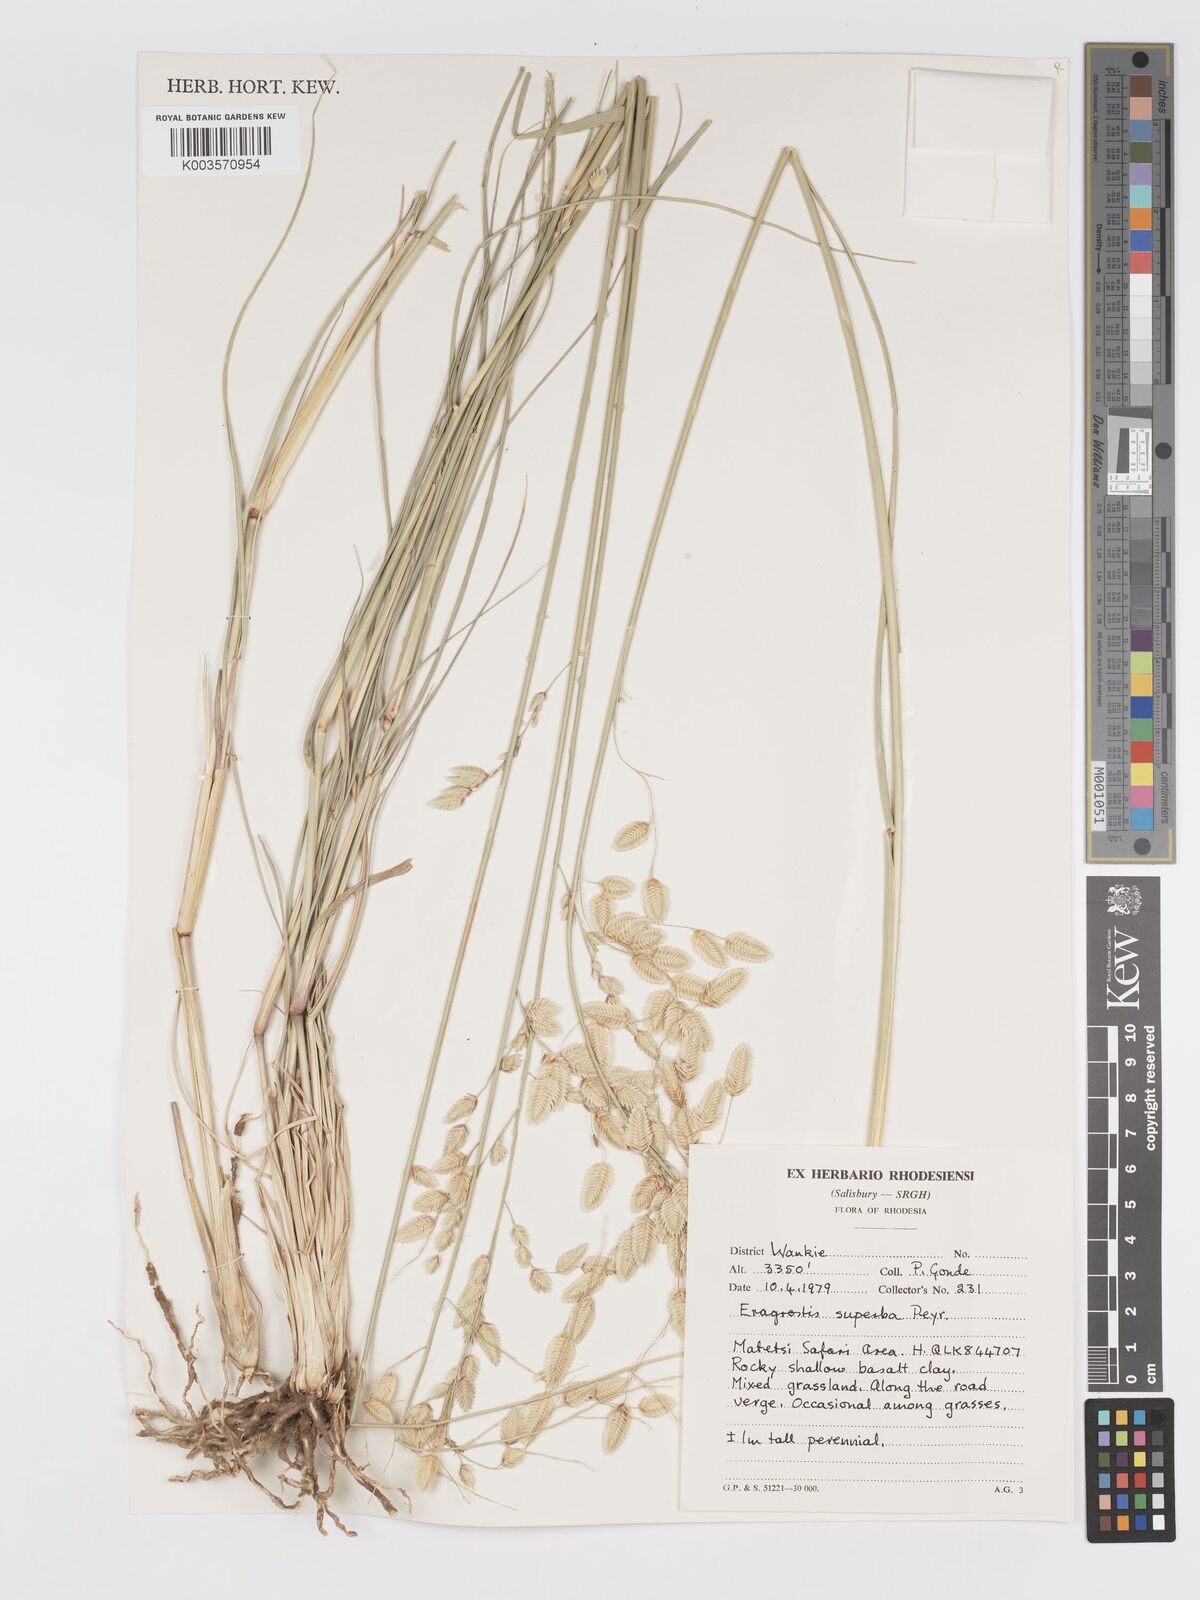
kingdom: Plantae
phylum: Tracheophyta
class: Liliopsida
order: Poales
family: Poaceae
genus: Eragrostis
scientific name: Eragrostis superba
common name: Wilman lovegrass
